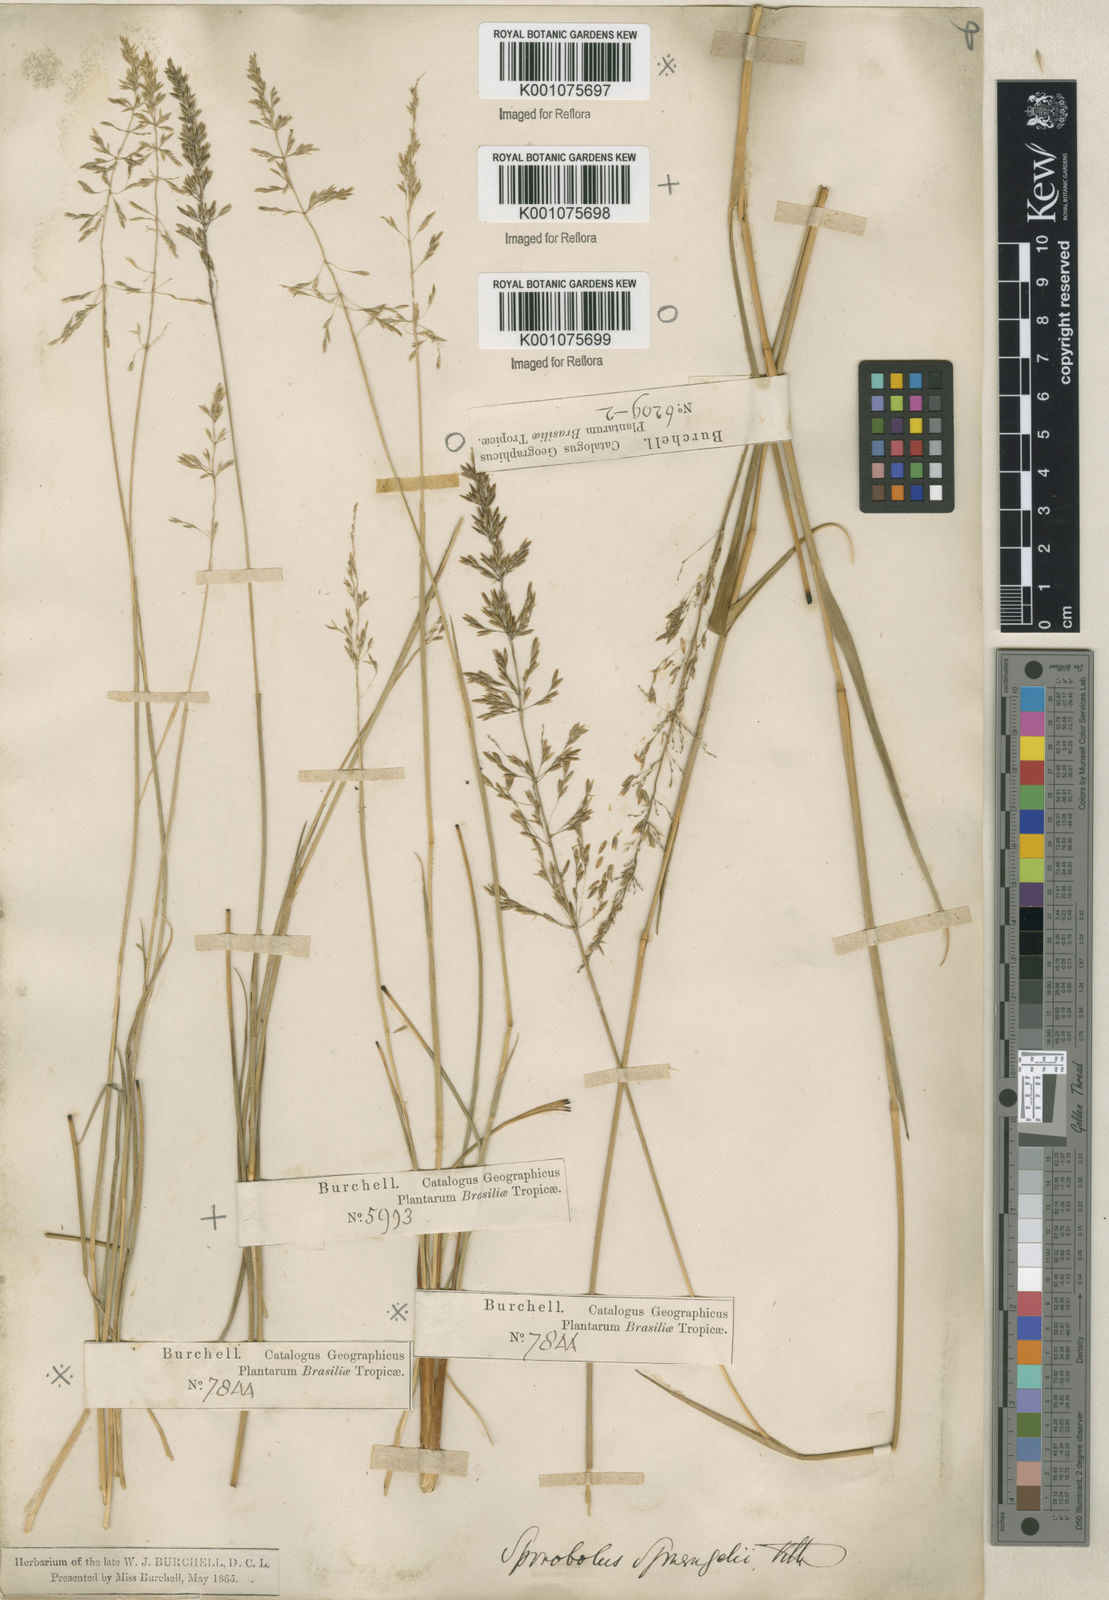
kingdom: Plantae
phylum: Tracheophyta
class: Liliopsida
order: Poales
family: Poaceae
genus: Sporobolus
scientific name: Sporobolus cubensis
